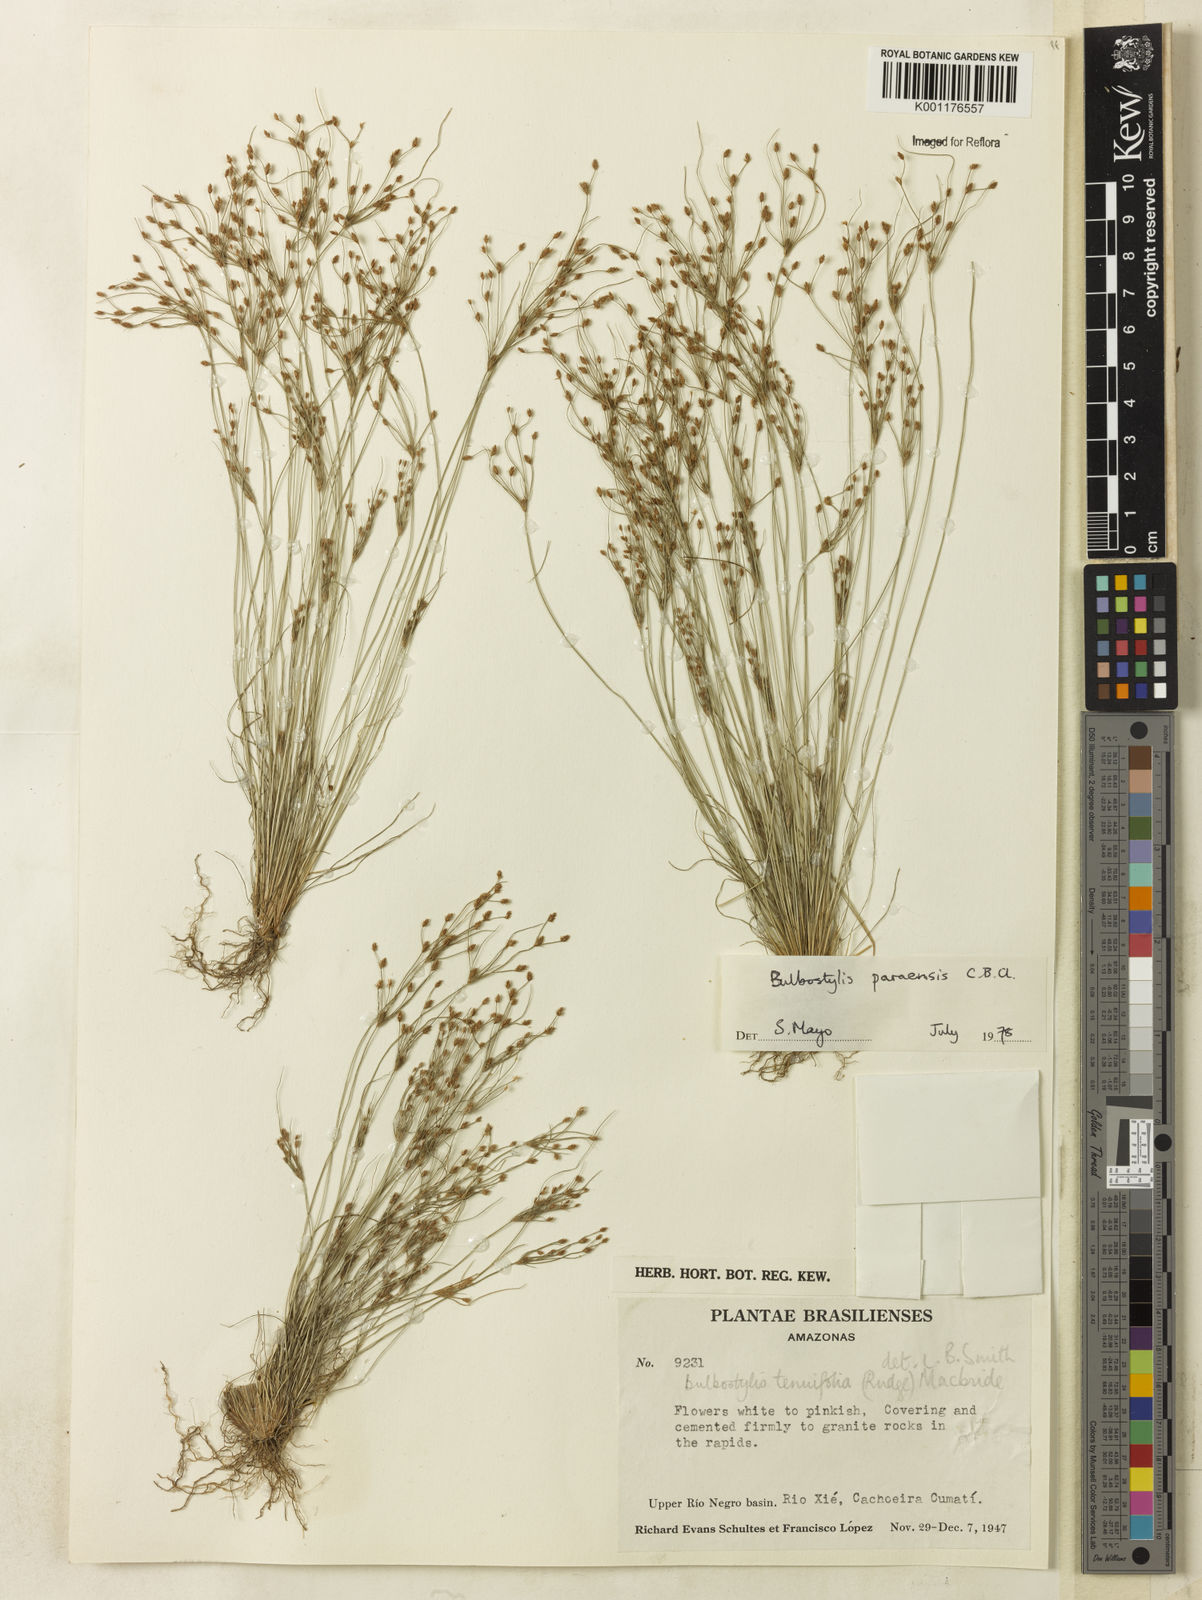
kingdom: Plantae
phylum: Tracheophyta
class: Liliopsida
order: Poales
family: Cyperaceae
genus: Bulbostylis
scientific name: Bulbostylis paraensis
